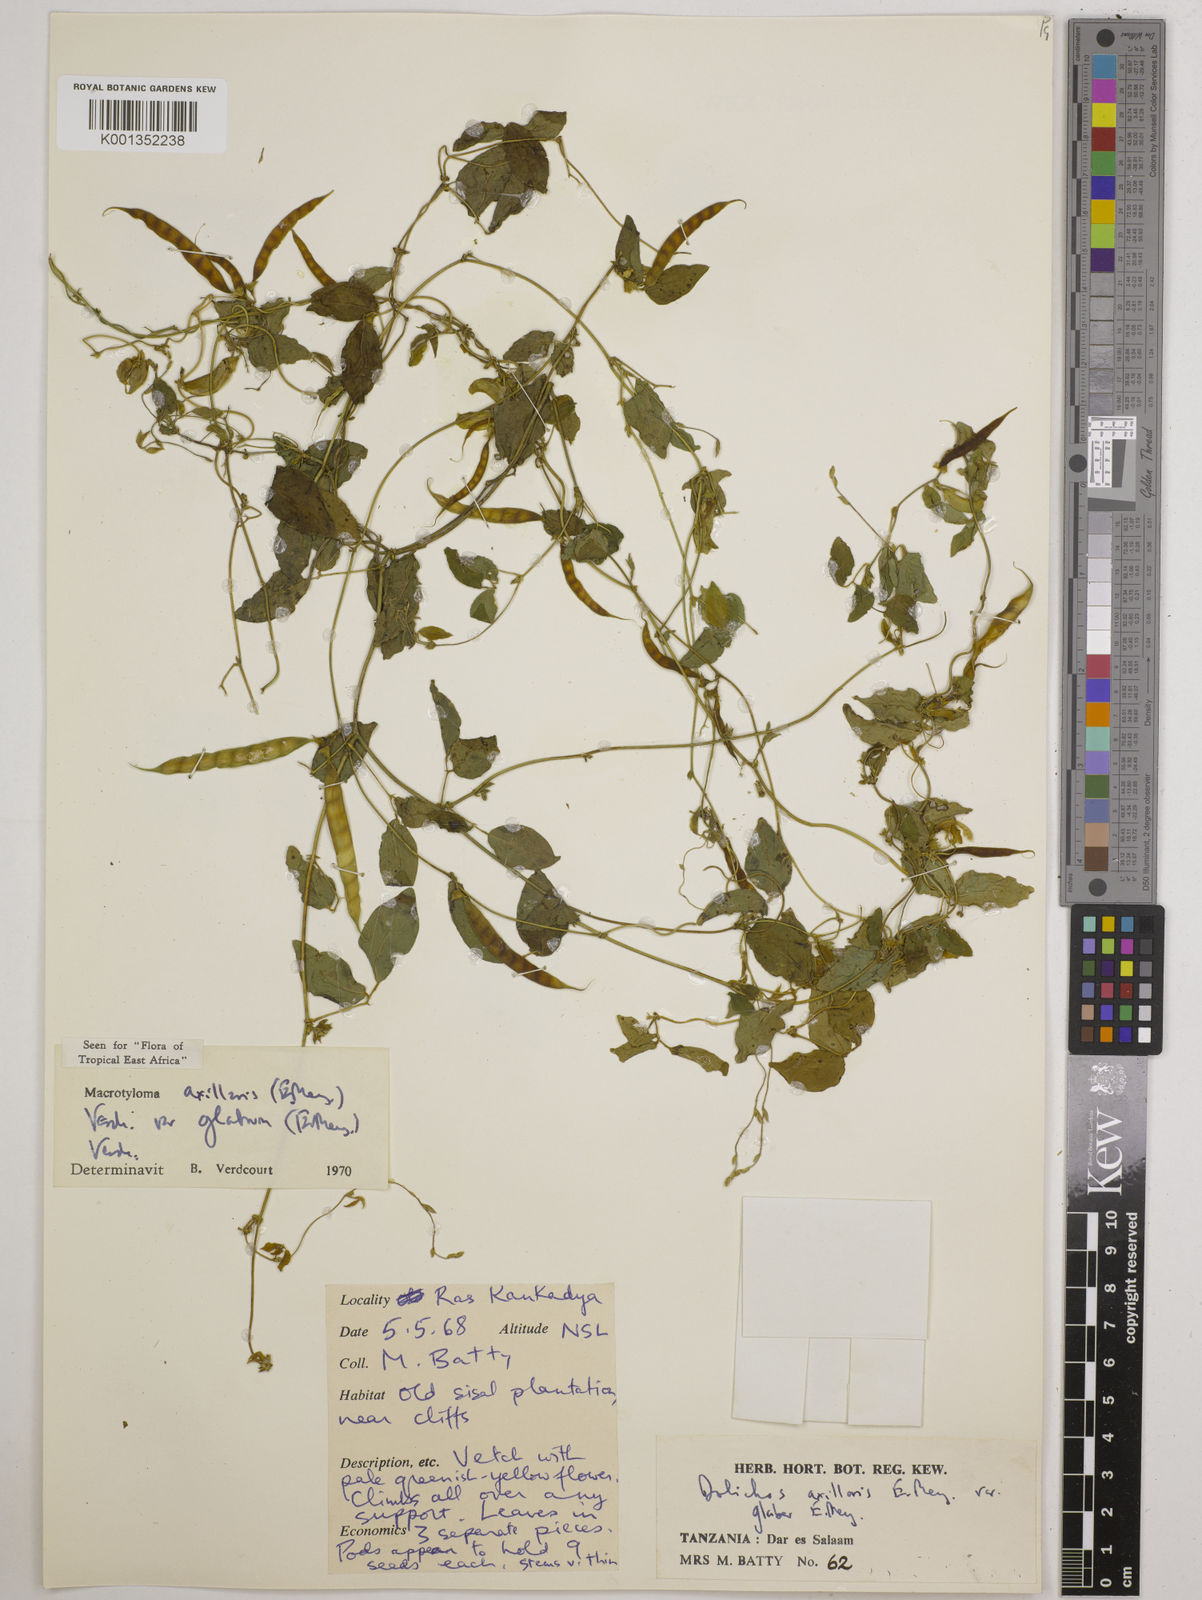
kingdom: Plantae
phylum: Tracheophyta
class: Magnoliopsida
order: Fabales
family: Fabaceae
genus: Macrotyloma
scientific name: Macrotyloma
